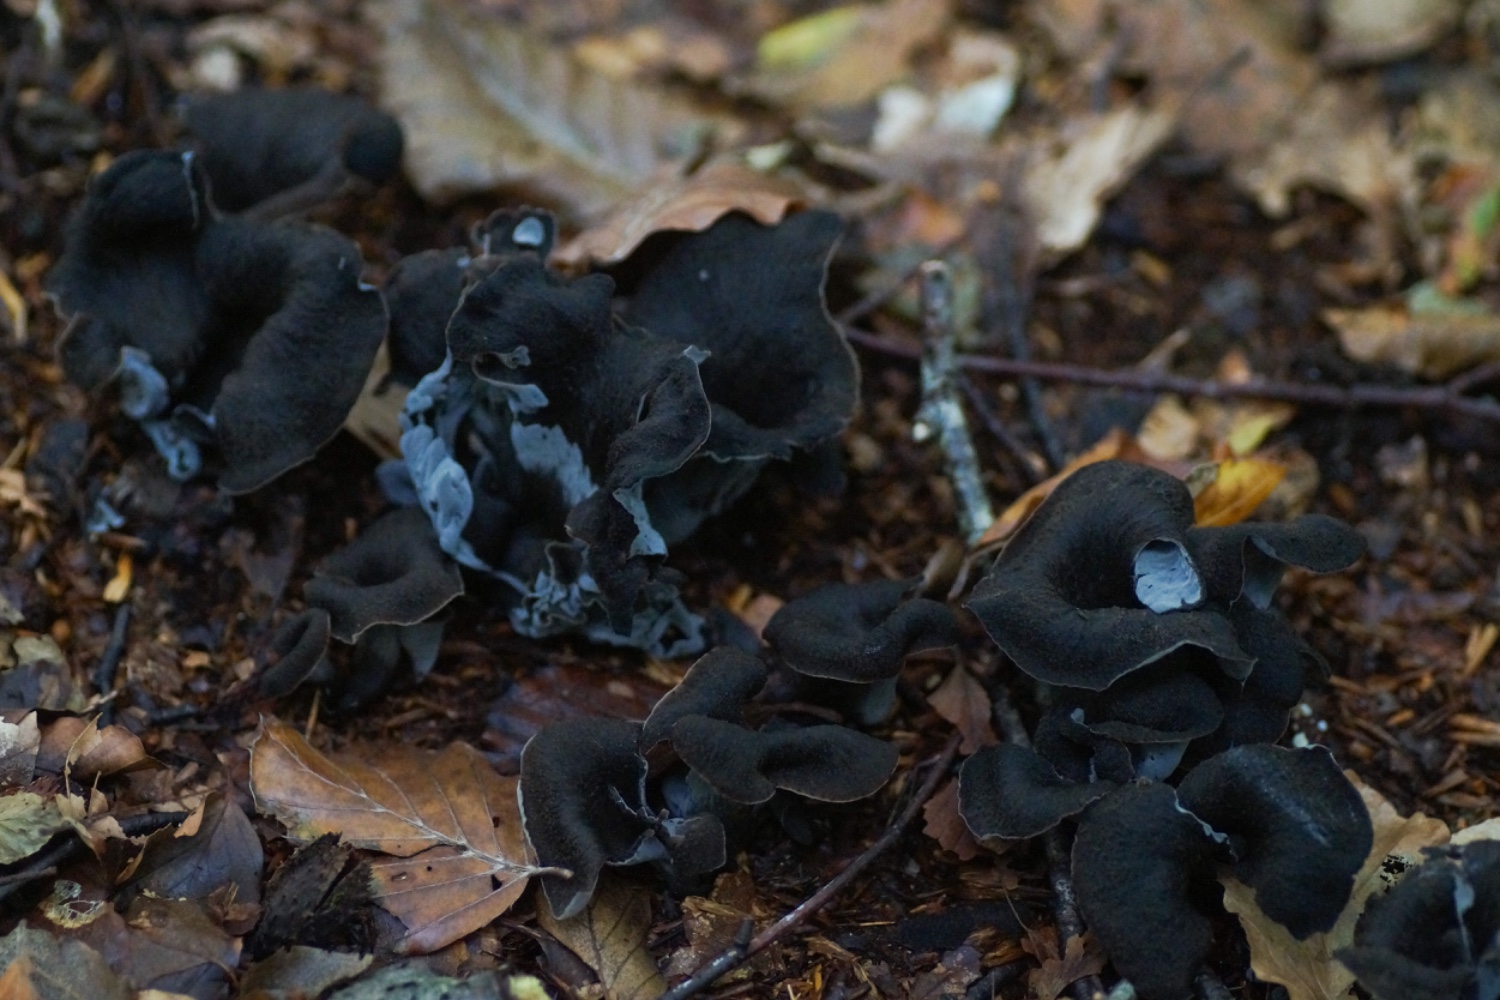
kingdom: Fungi
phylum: Basidiomycota
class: Agaricomycetes
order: Cantharellales
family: Hydnaceae
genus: Craterellus
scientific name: Craterellus cornucopioides
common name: trompetsvamp
